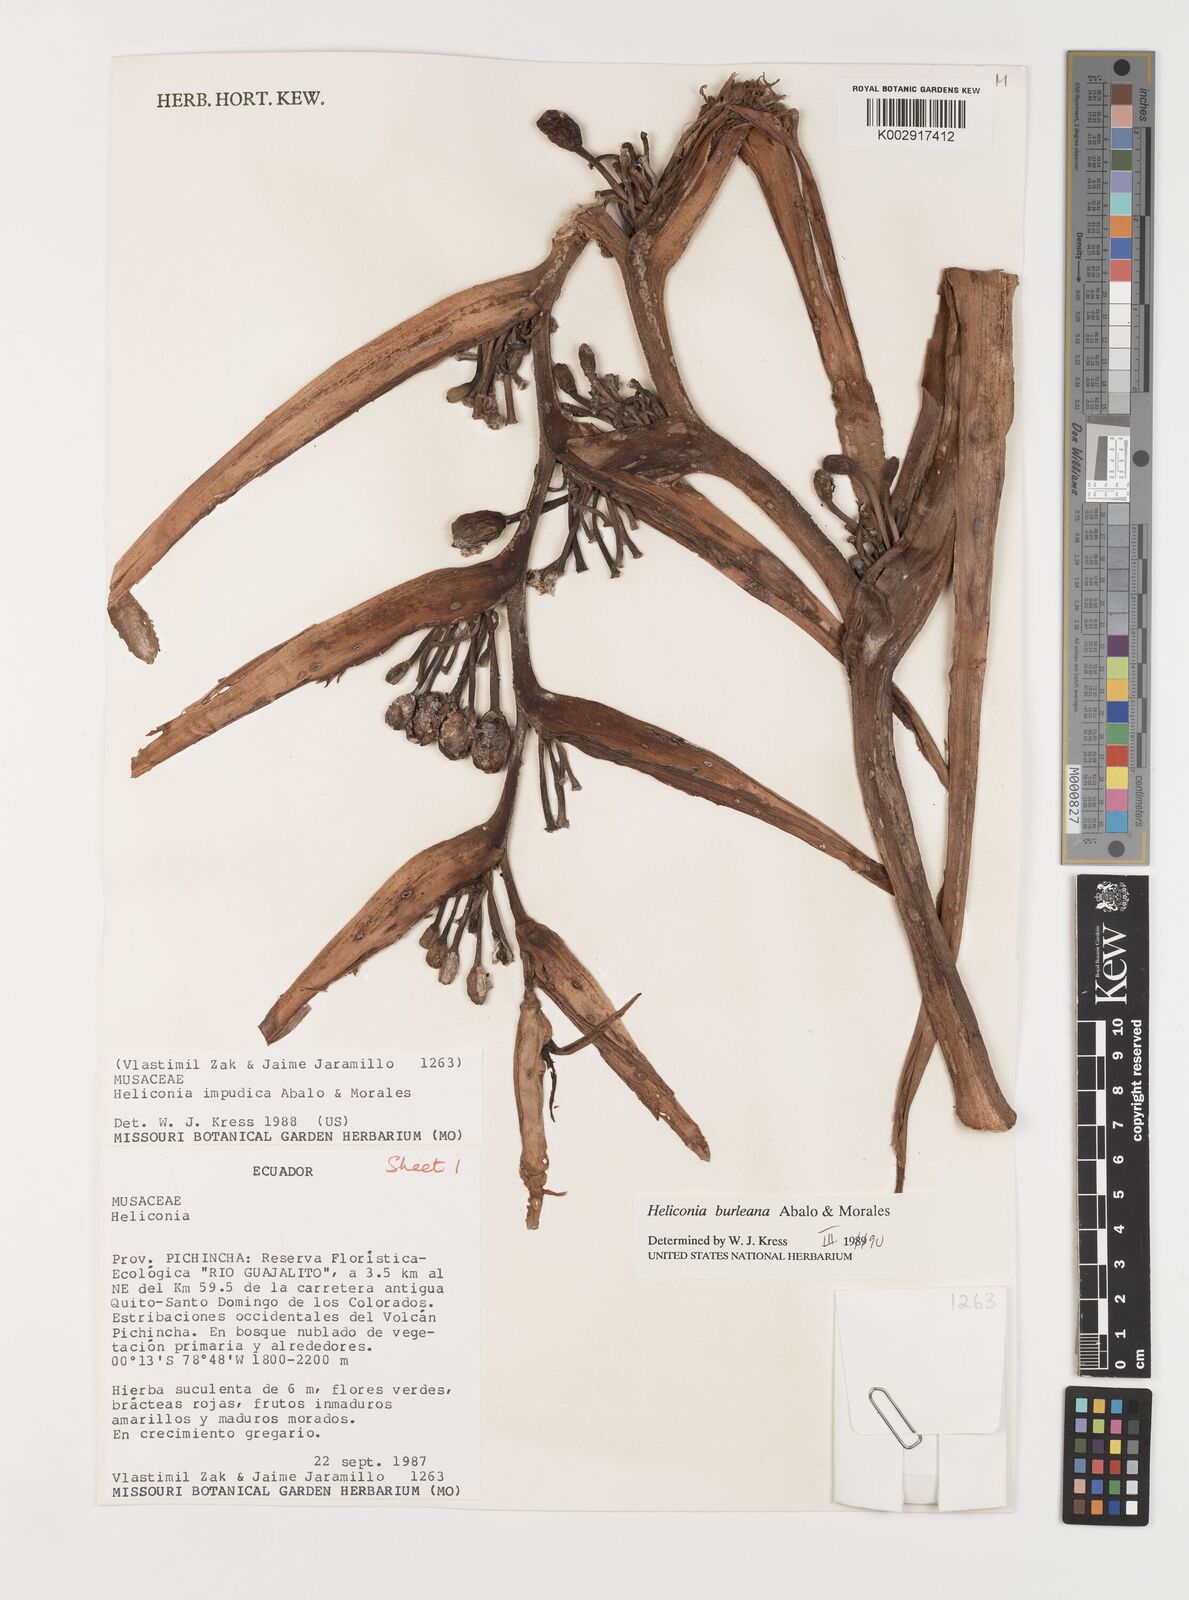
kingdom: Plantae
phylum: Tracheophyta
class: Liliopsida
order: Zingiberales
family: Heliconiaceae
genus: Heliconia
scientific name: Heliconia burleana
